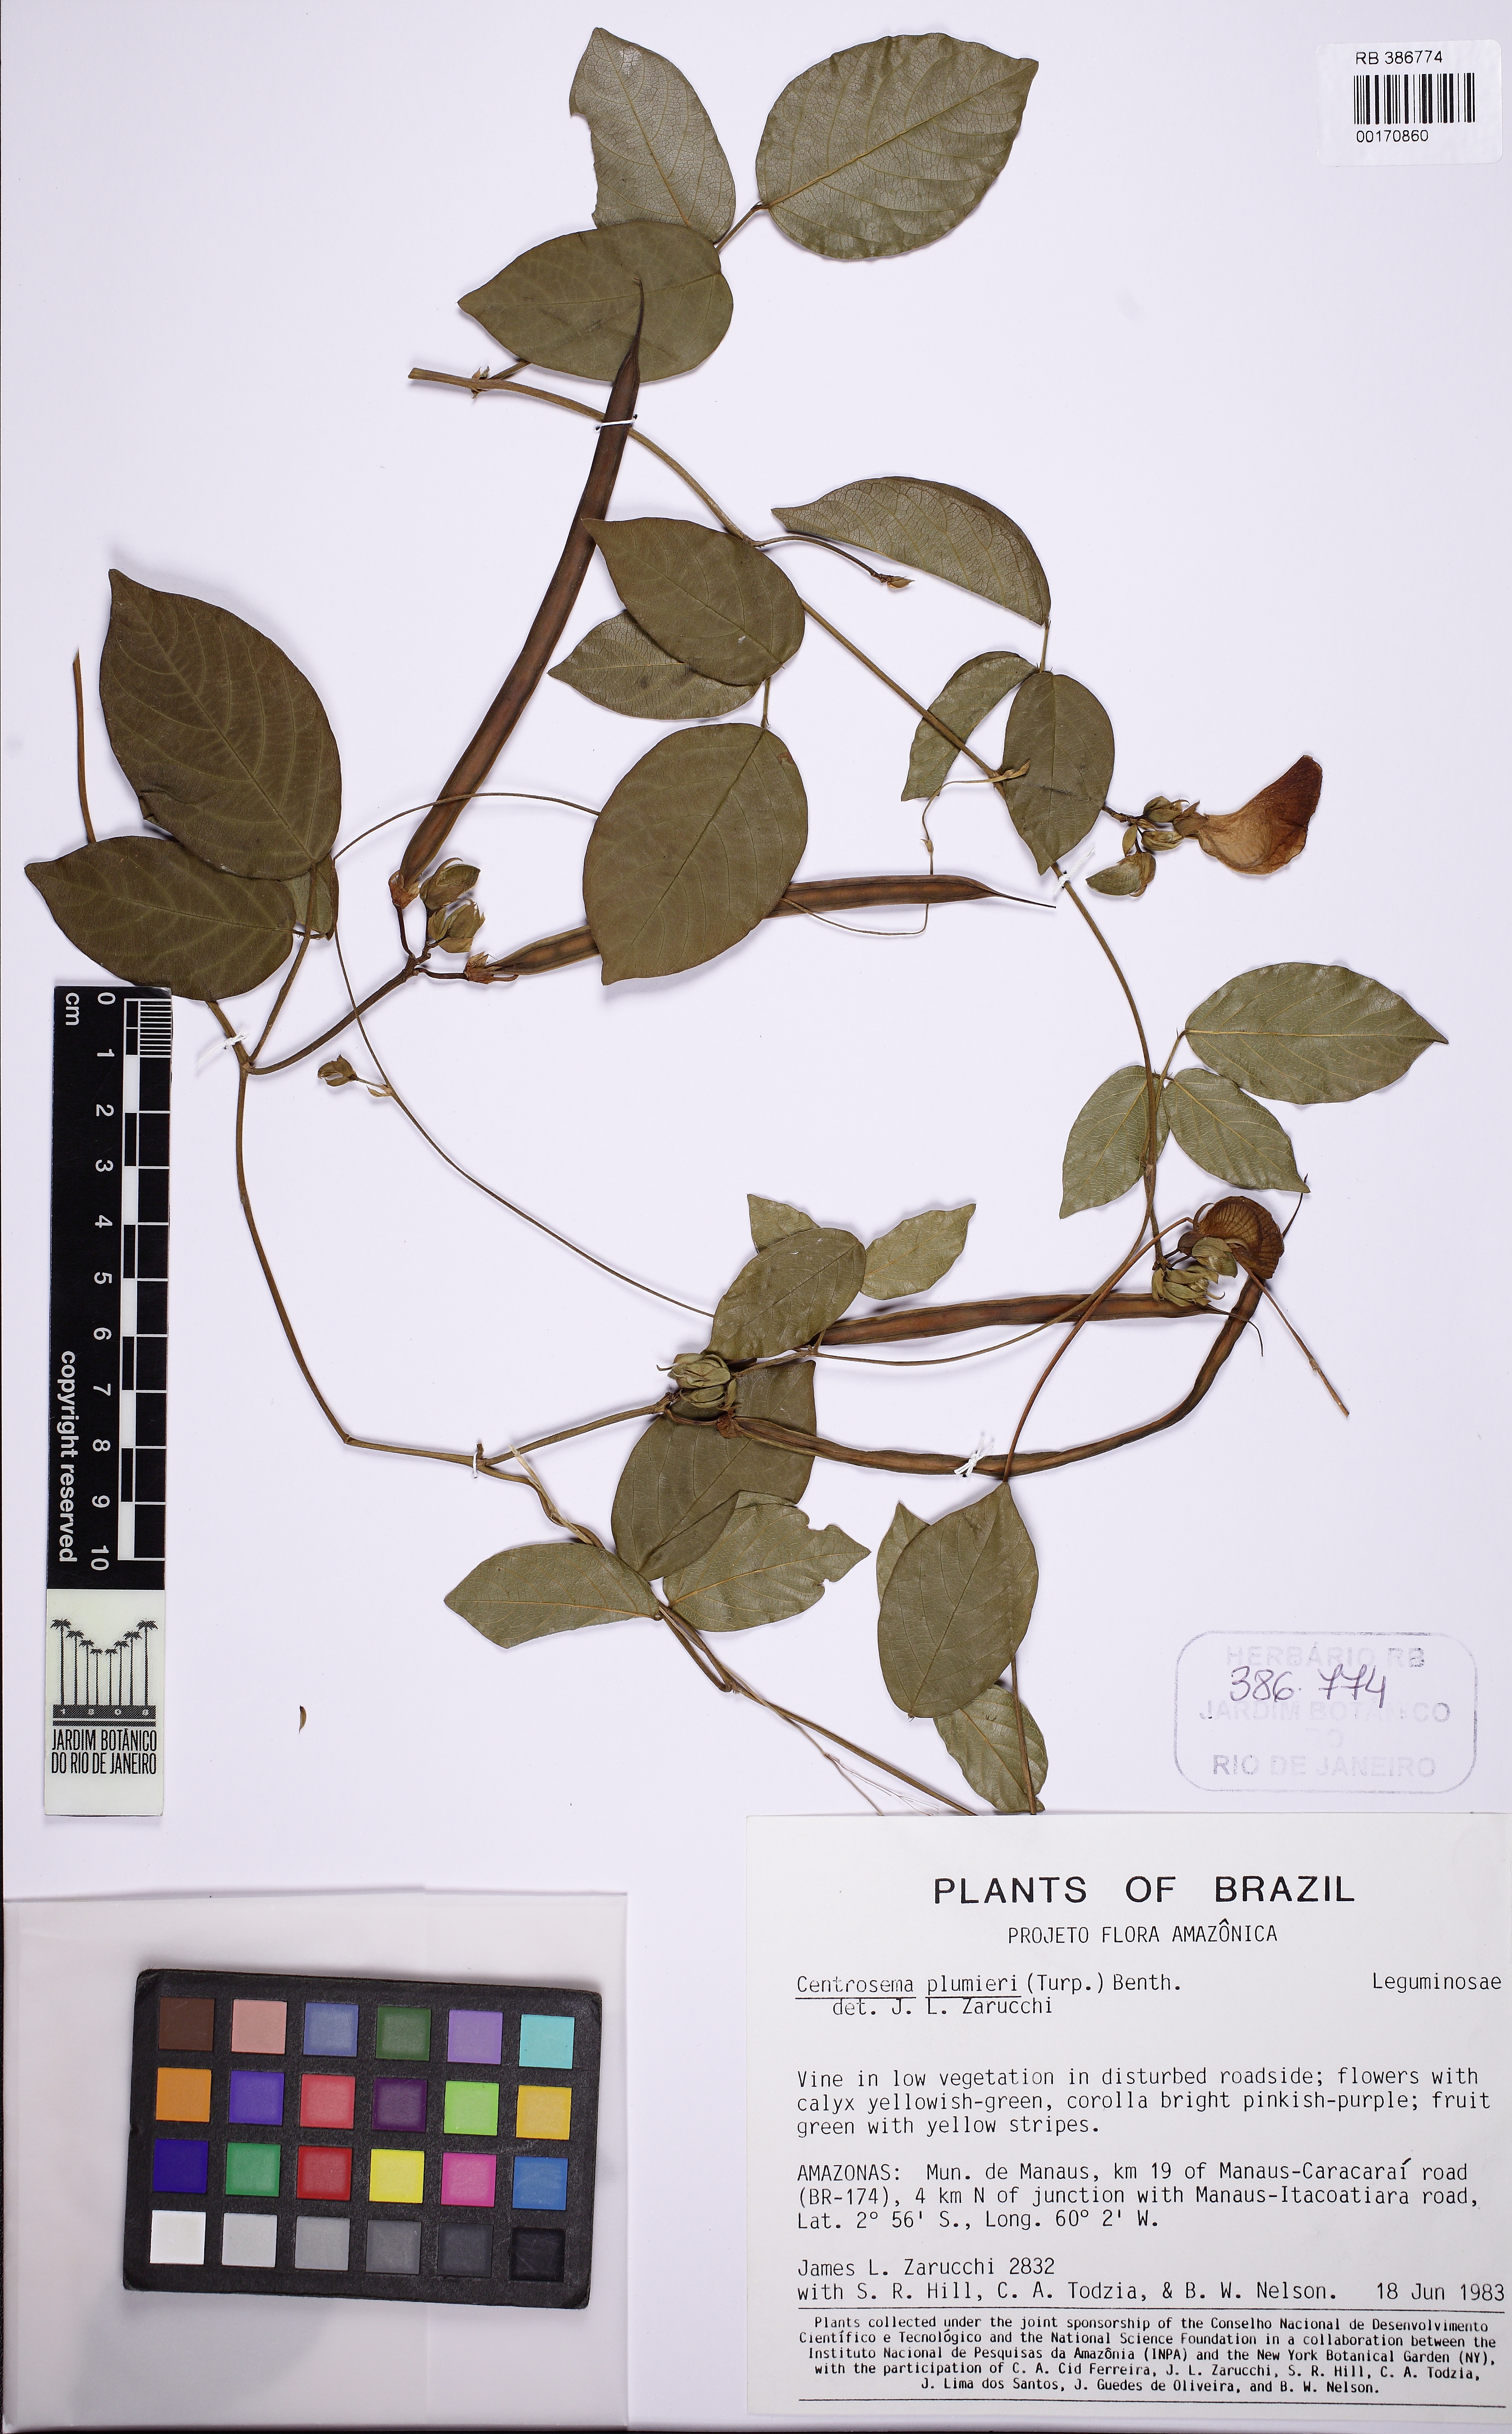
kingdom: Plantae
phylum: Tracheophyta
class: Magnoliopsida
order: Fabales
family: Fabaceae
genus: Centrosema
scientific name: Centrosema plumieri
